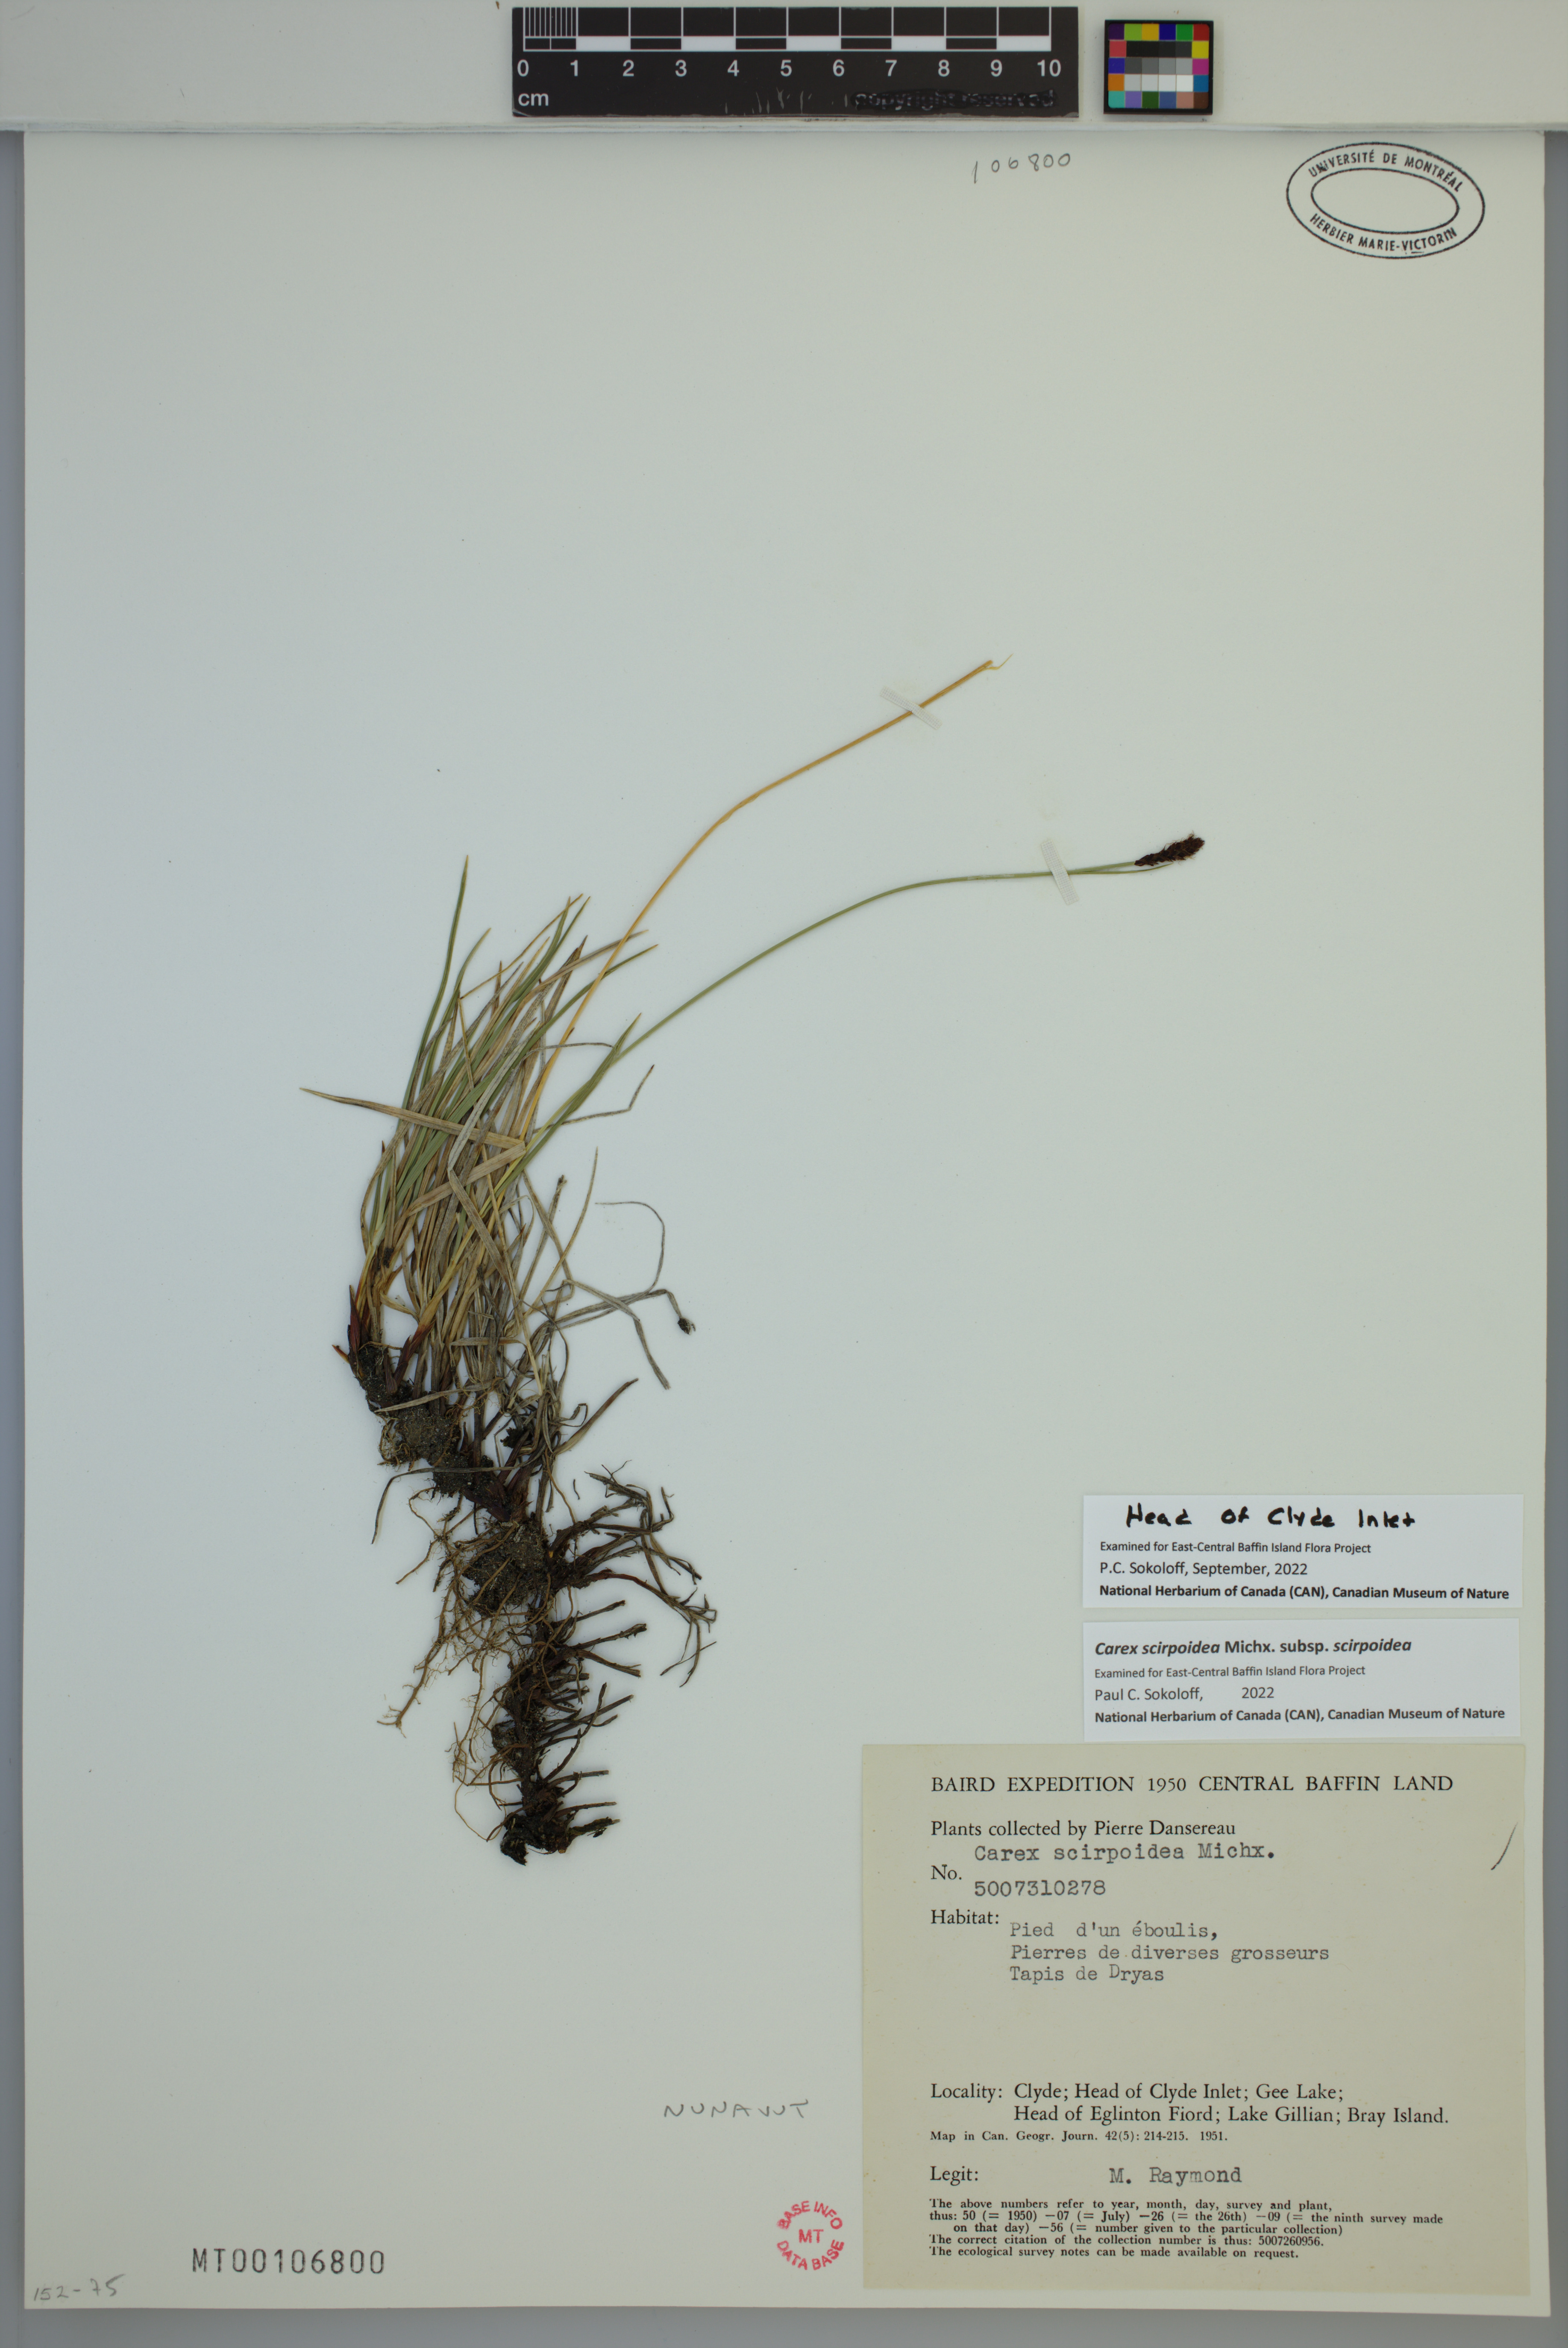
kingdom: Plantae
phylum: Tracheophyta
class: Liliopsida
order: Poales
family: Cyperaceae
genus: Carex
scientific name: Carex scirpoidea
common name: Canada single-spike sedge
